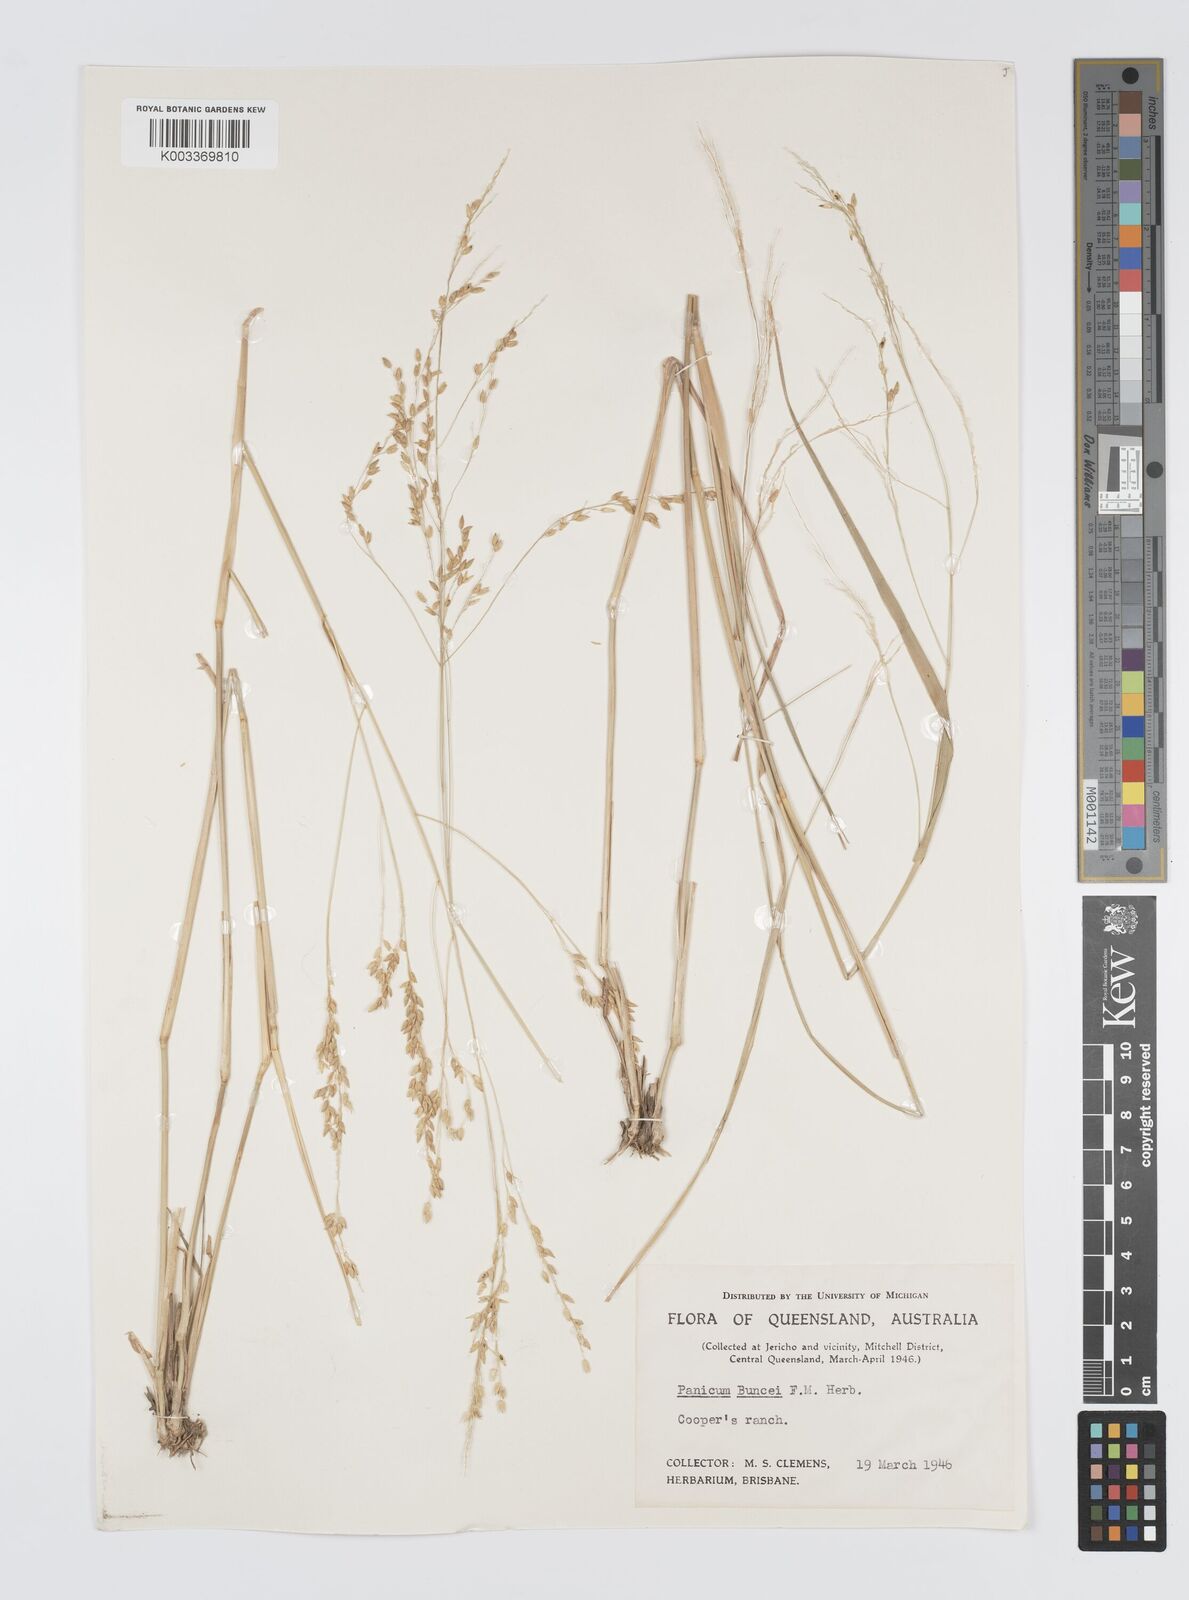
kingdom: Plantae
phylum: Tracheophyta
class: Liliopsida
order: Poales
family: Poaceae
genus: Panicum
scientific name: Panicum buncei
